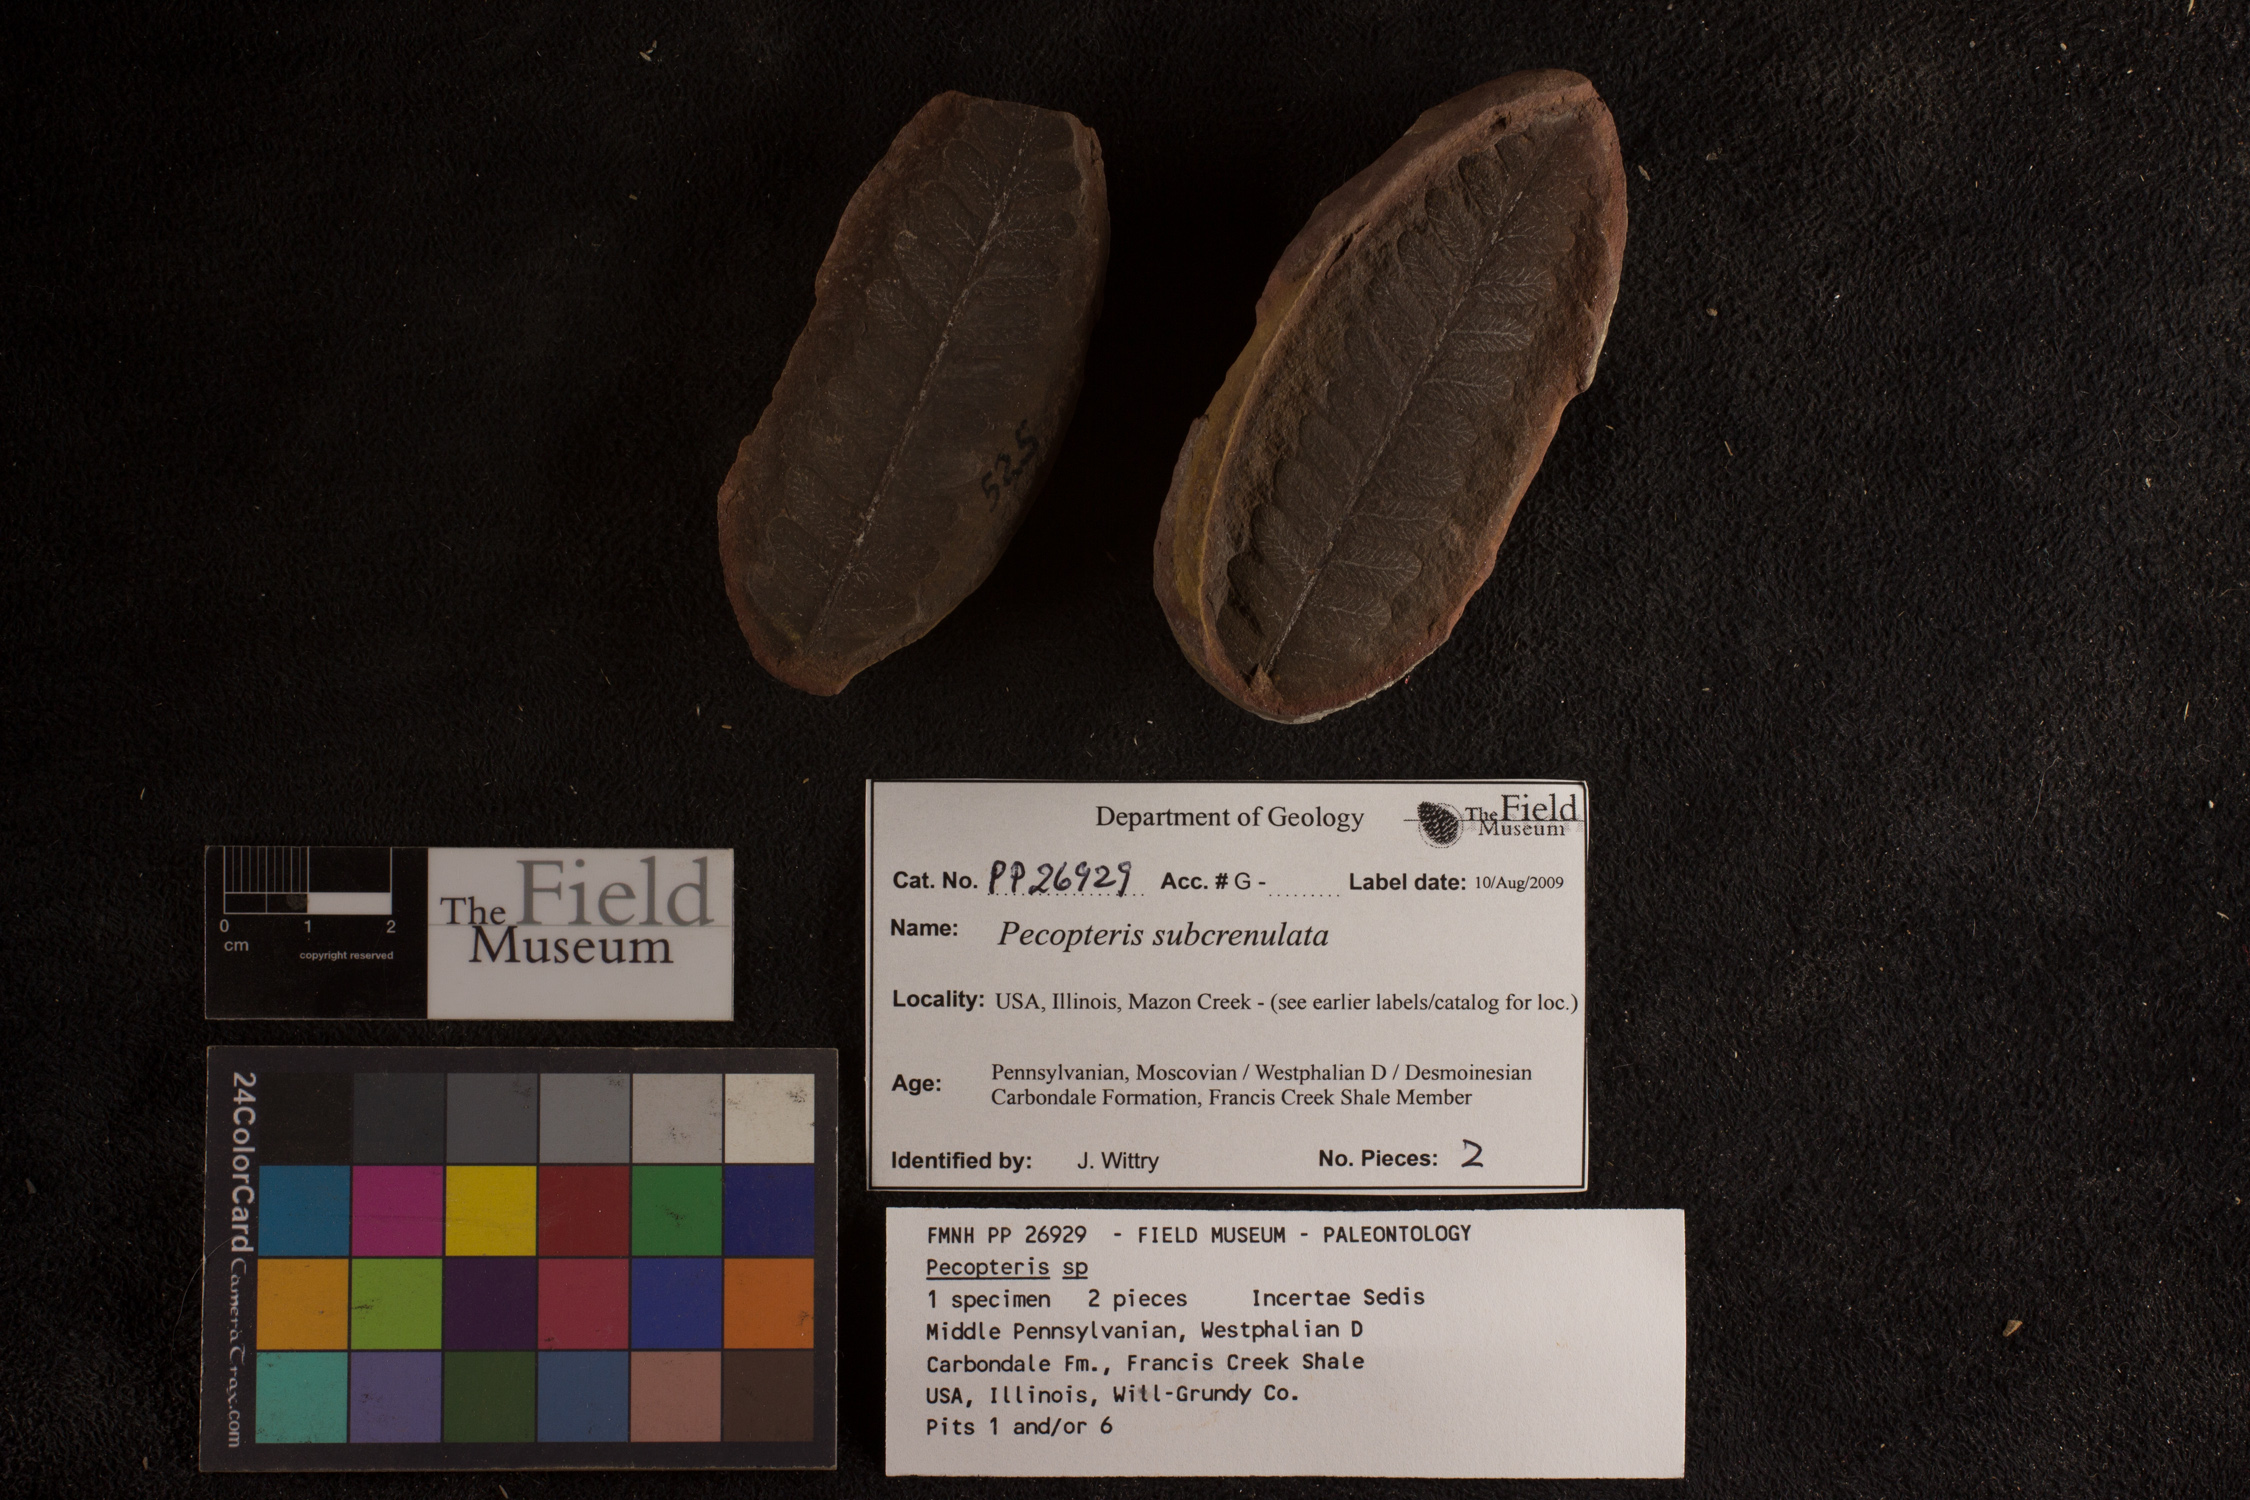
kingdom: Plantae
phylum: Tracheophyta
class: Polypodiopsida
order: Marattiales
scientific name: Marattiales
